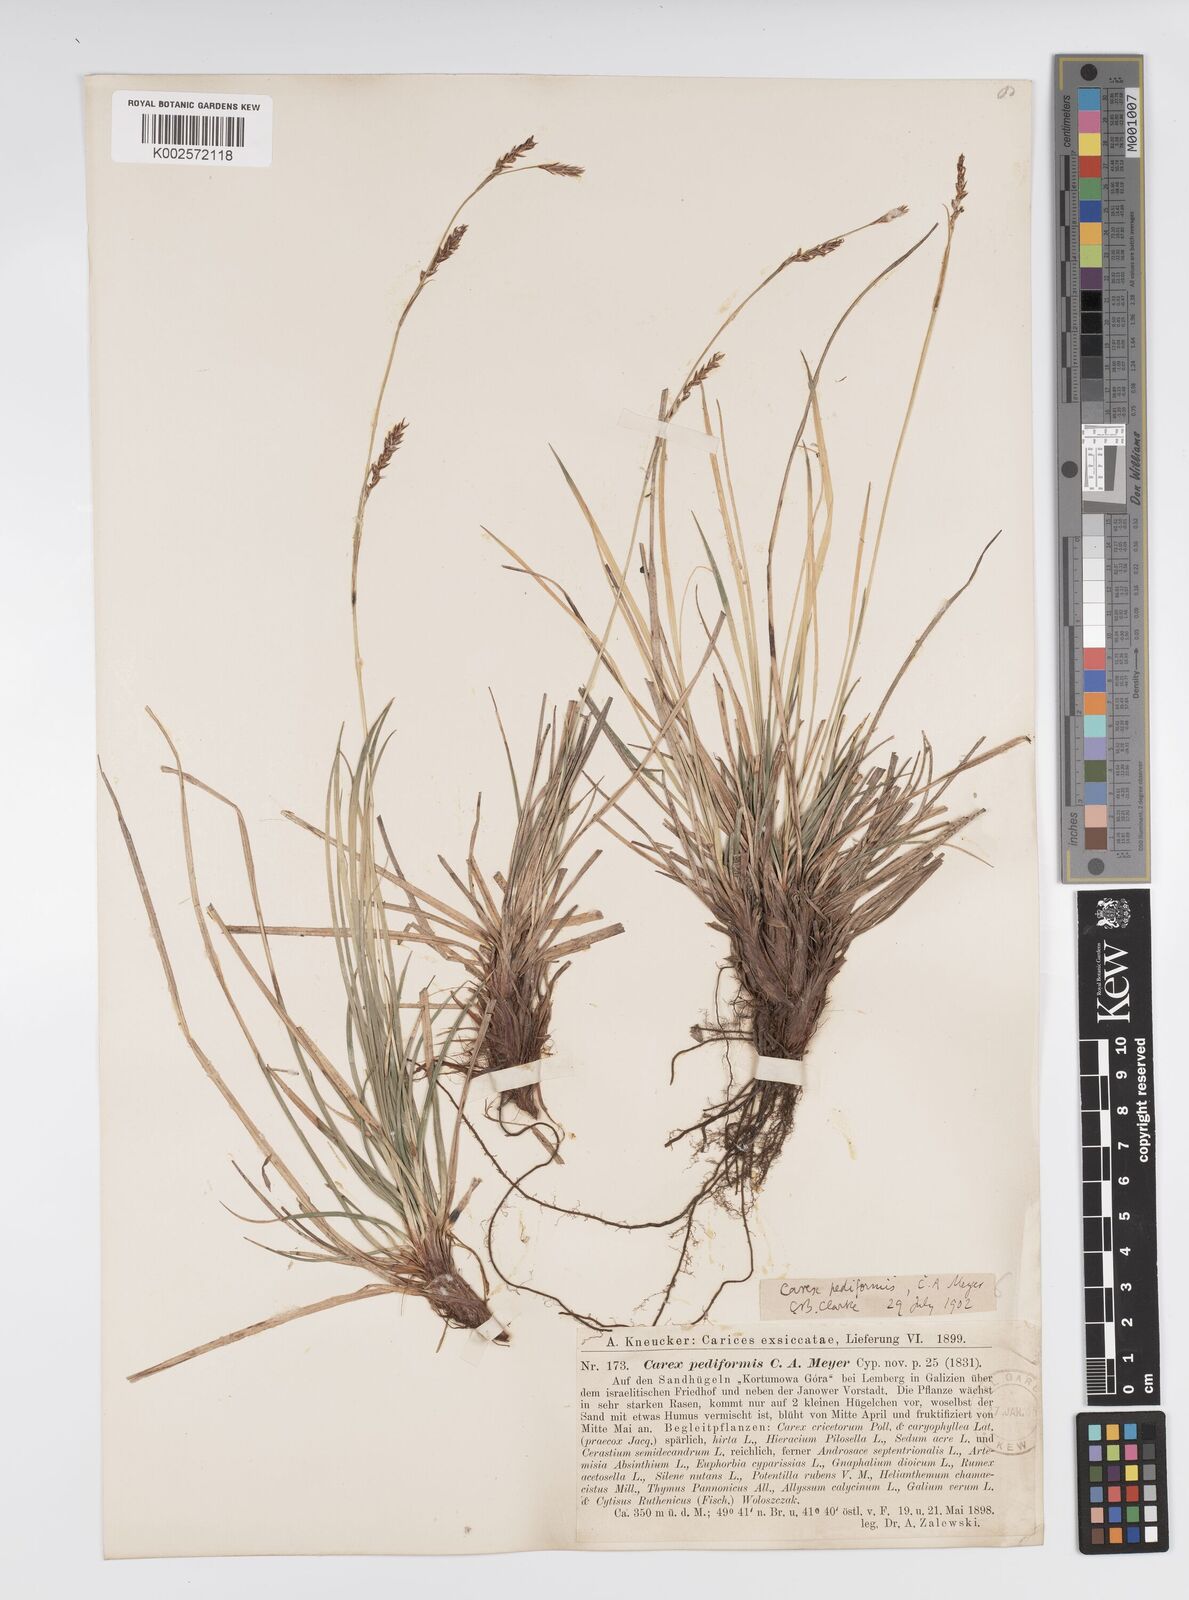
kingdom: Plantae
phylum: Tracheophyta
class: Liliopsida
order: Poales
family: Cyperaceae
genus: Carex
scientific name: Carex pediformis
